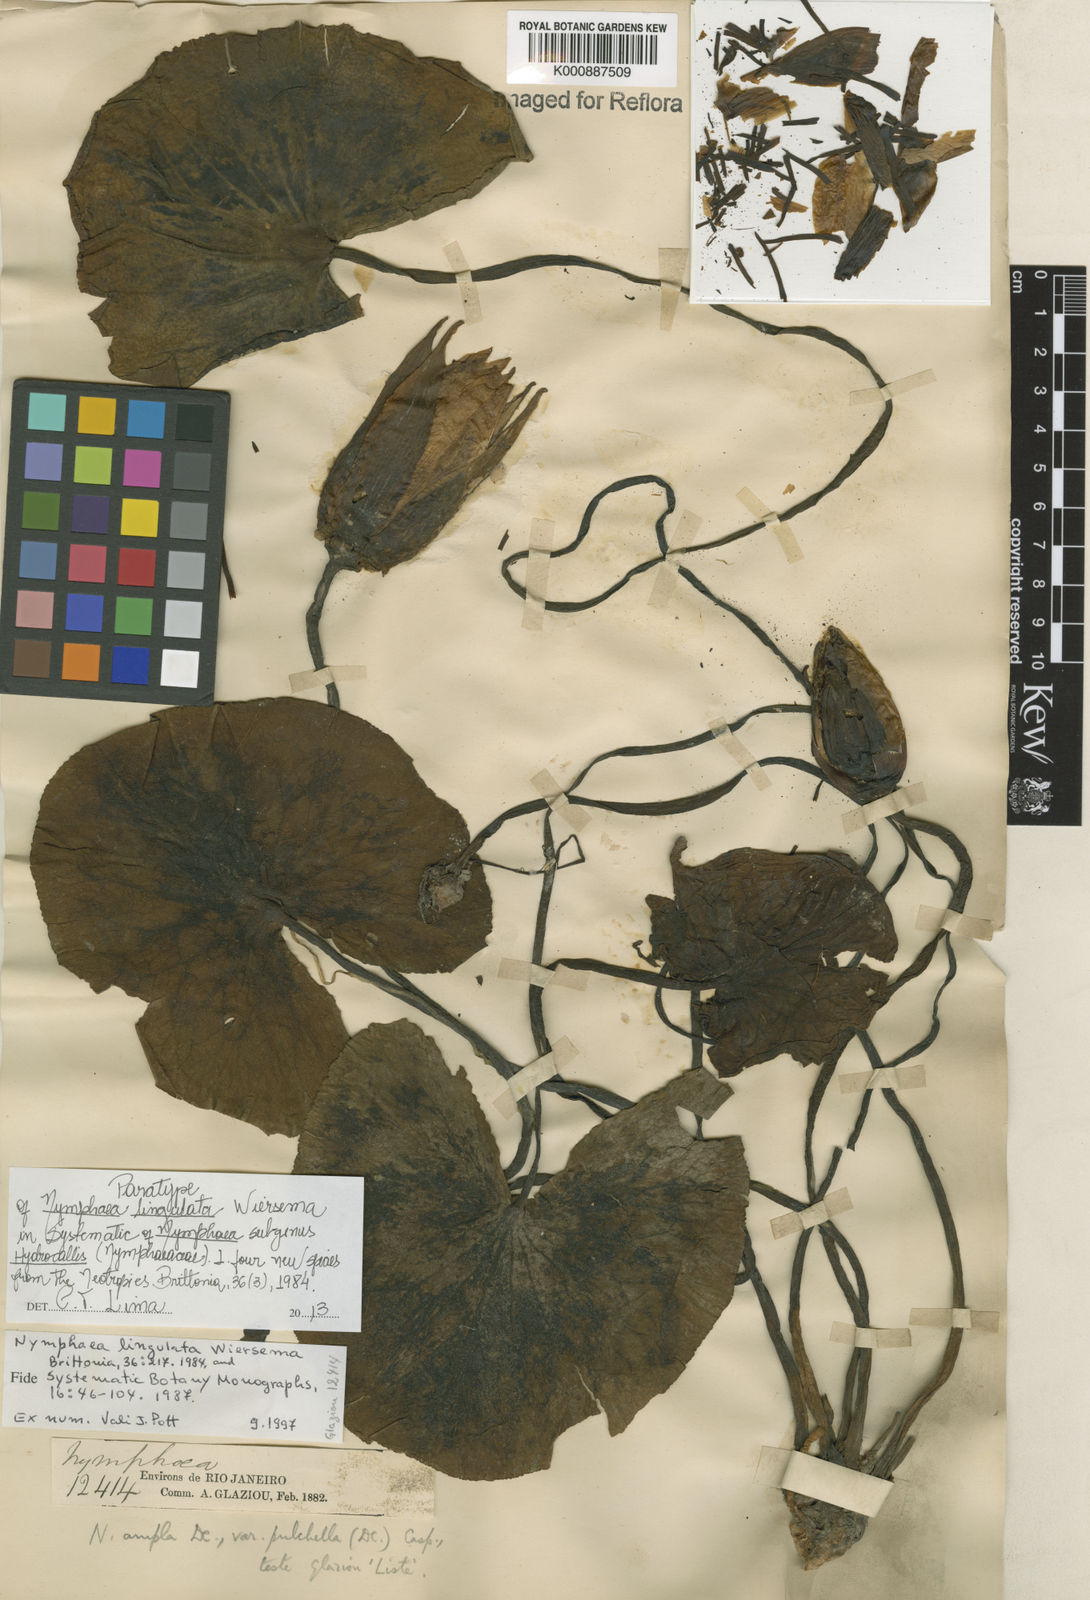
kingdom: Plantae
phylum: Tracheophyta
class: Magnoliopsida
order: Nymphaeales
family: Nymphaeaceae
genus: Nymphaea
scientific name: Nymphaea lingulata
